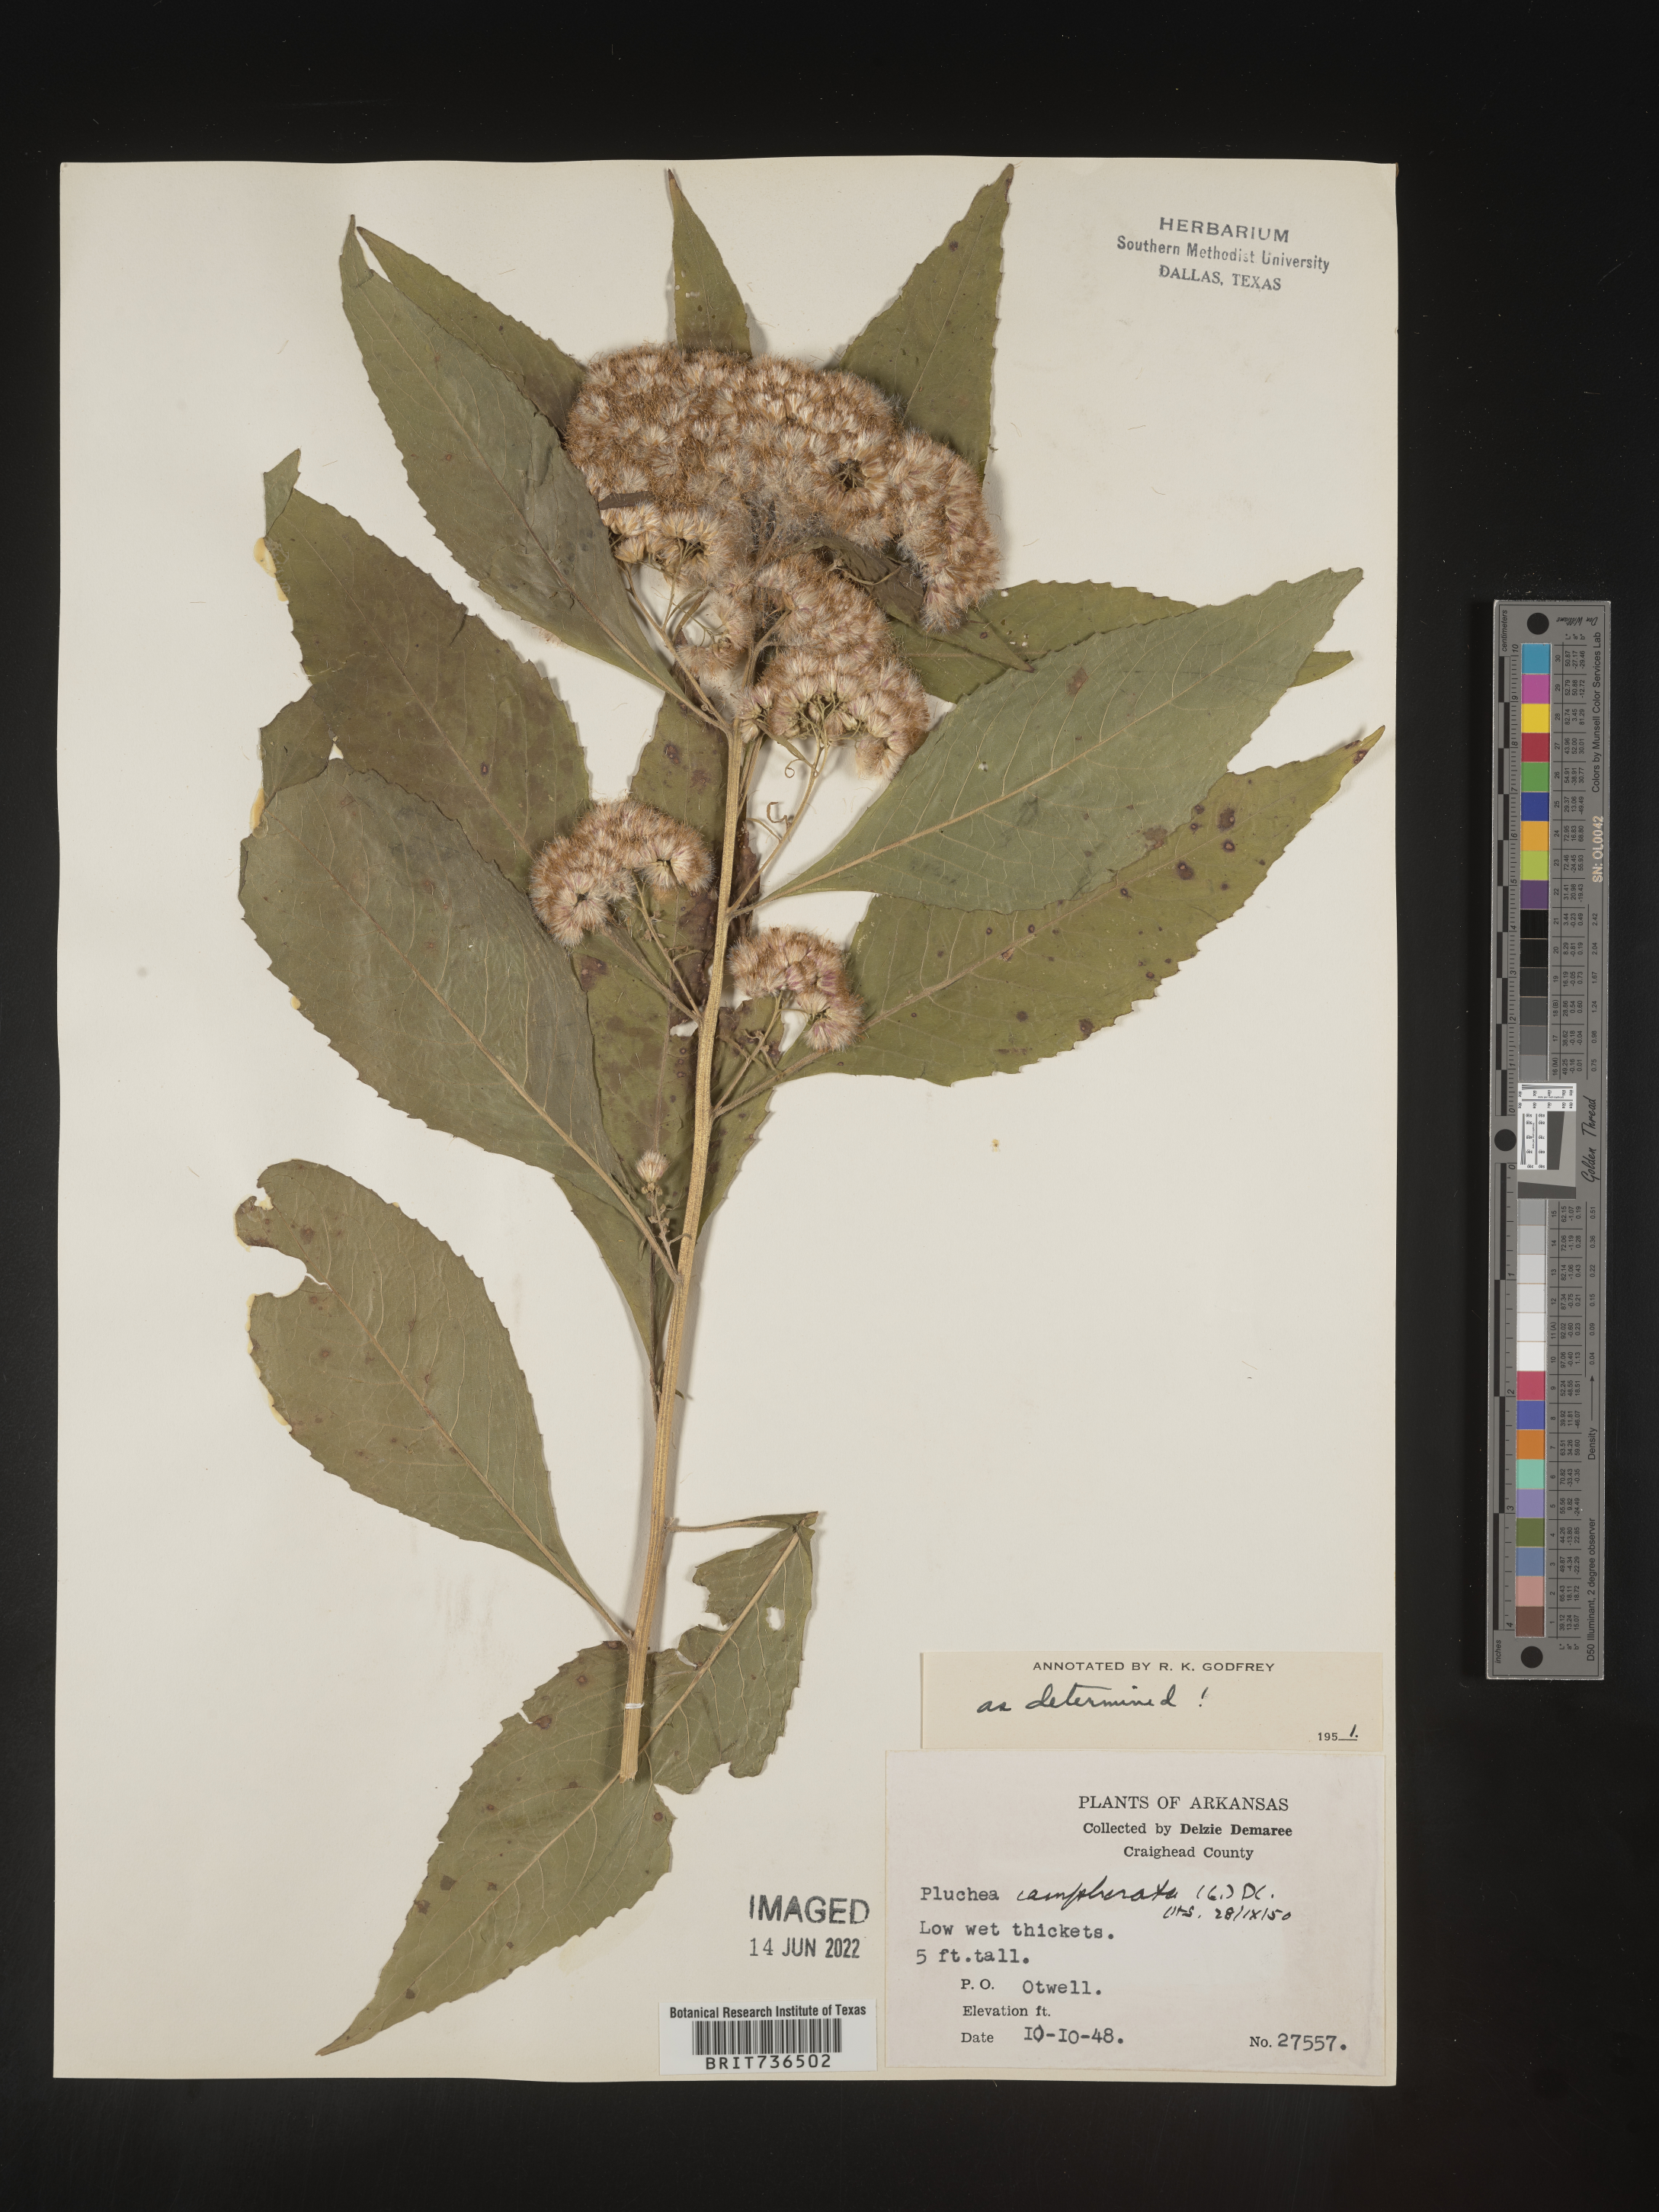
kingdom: Plantae
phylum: Tracheophyta
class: Magnoliopsida
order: Asterales
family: Asteraceae
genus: Pluchea
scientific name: Pluchea camphorata
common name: Camphor pluchea
